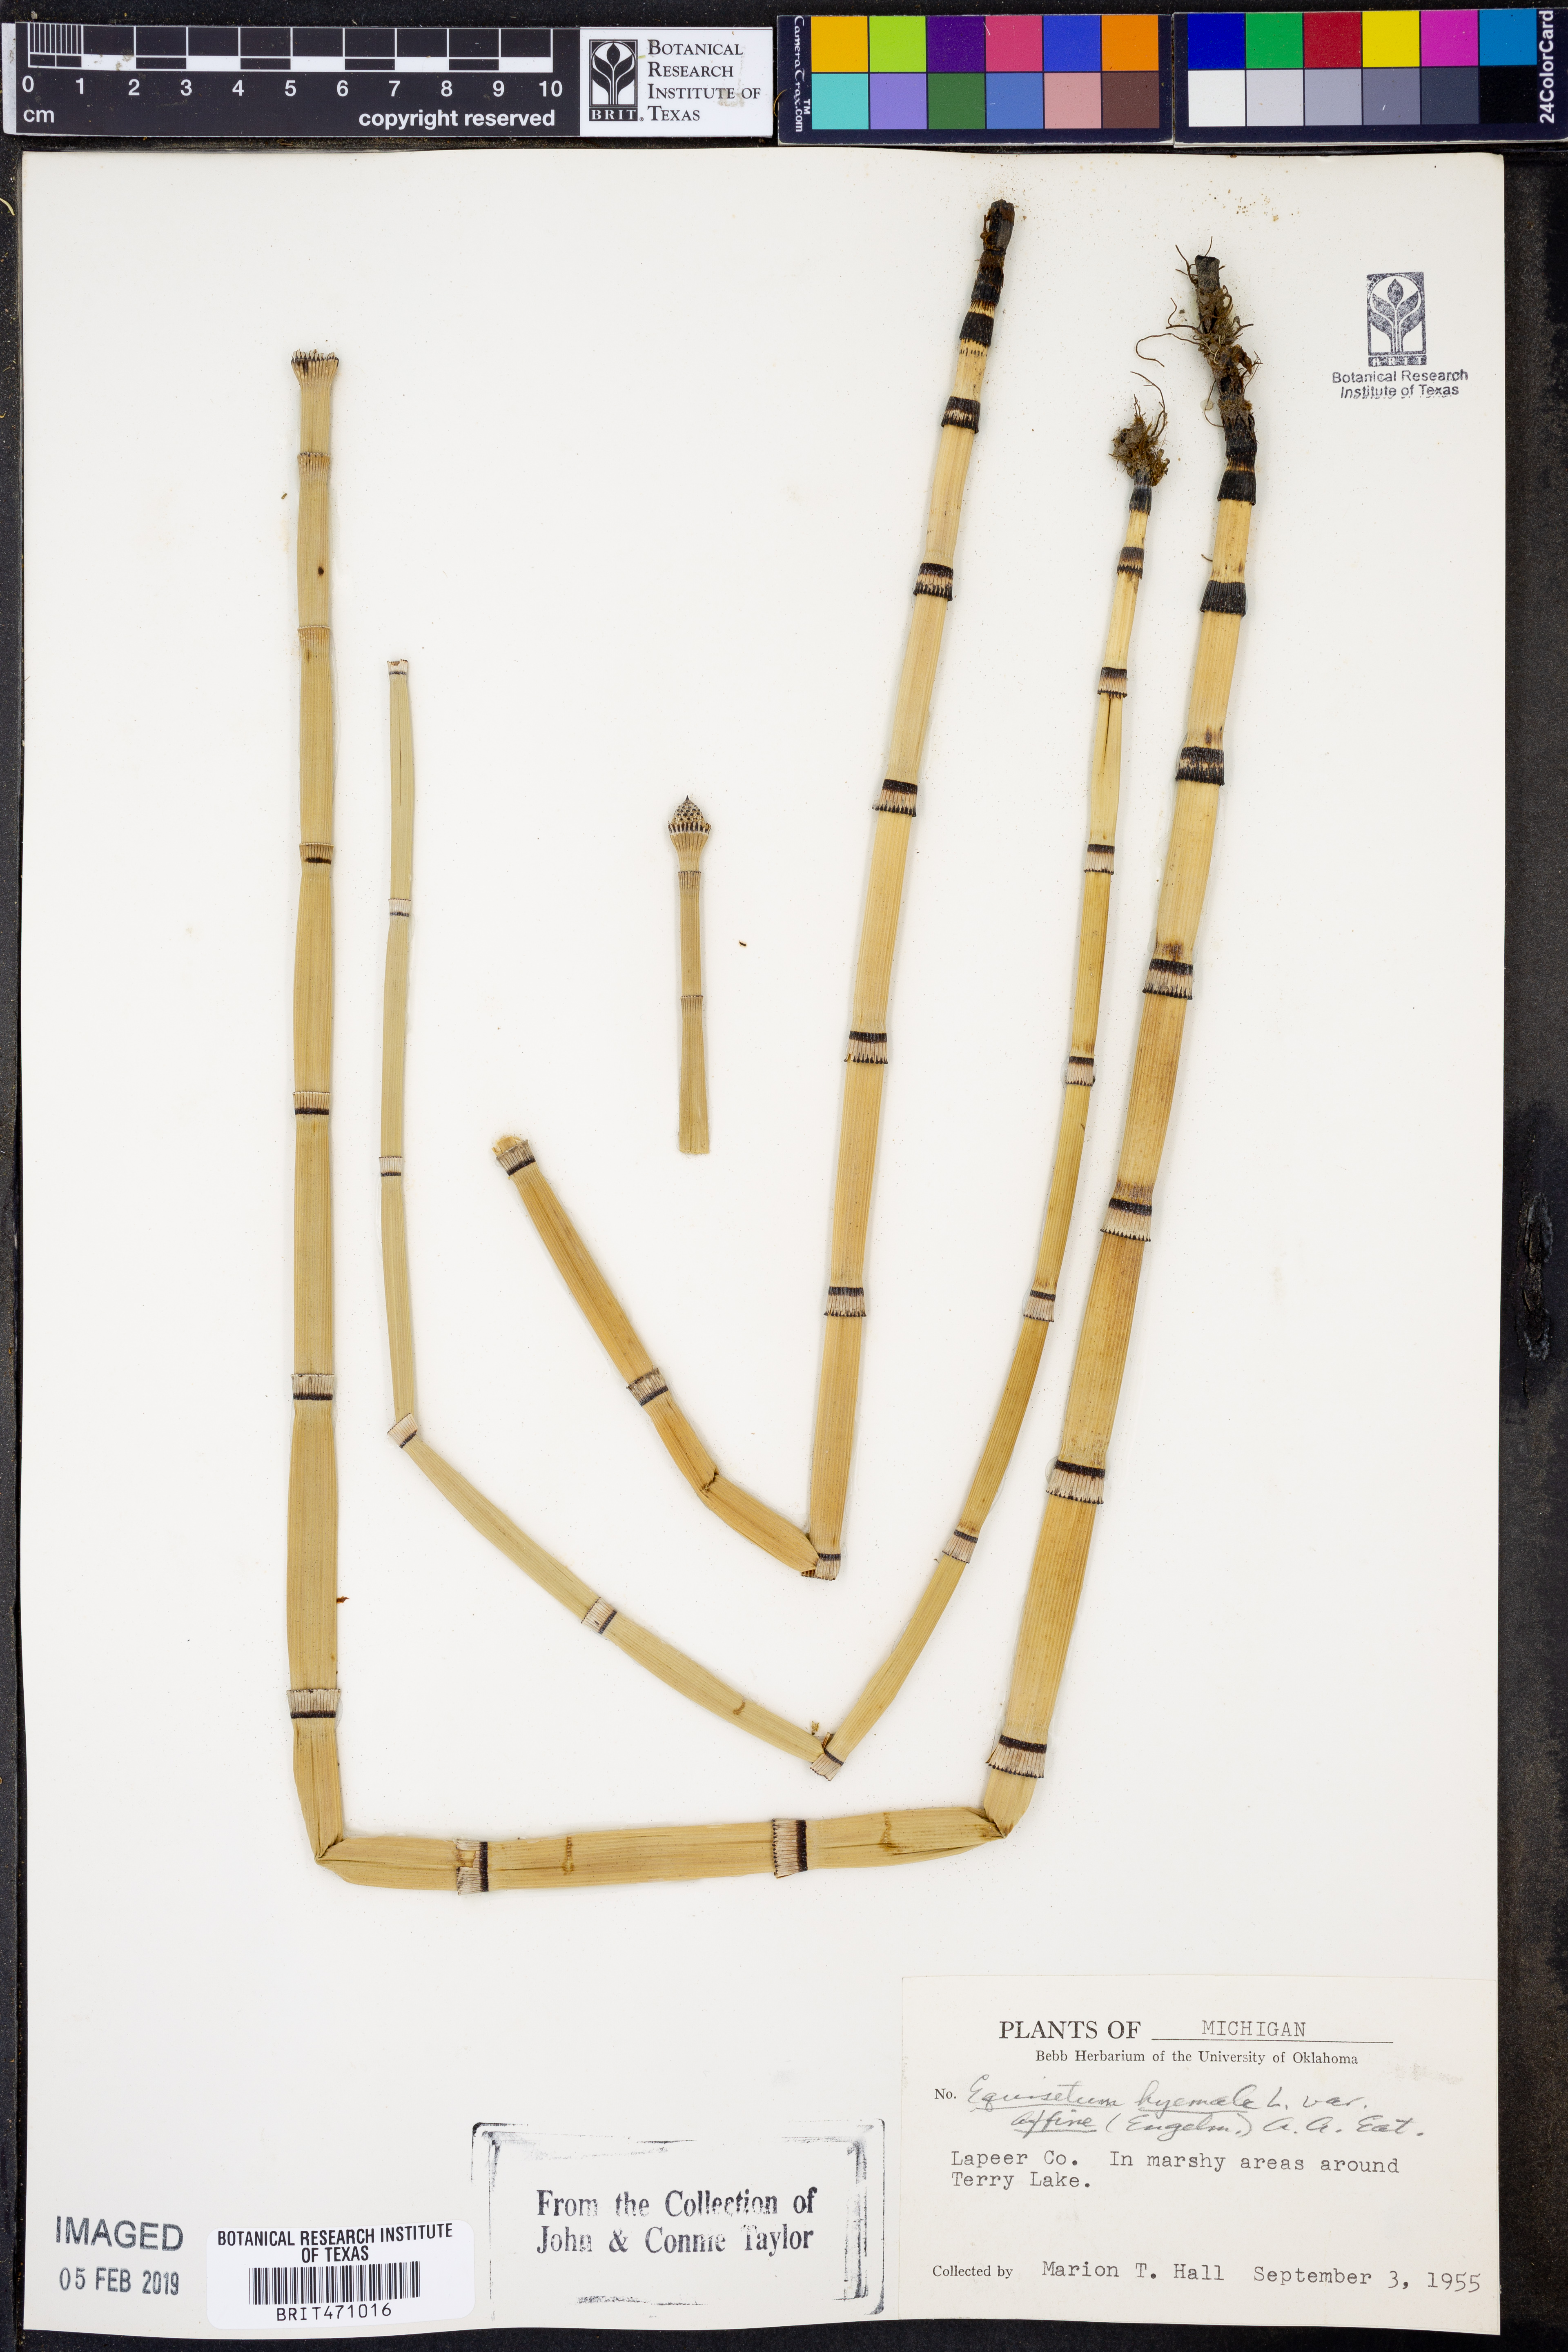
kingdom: Plantae
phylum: Tracheophyta
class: Polypodiopsida
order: Equisetales
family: Equisetaceae
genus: Equisetum
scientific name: Equisetum praealtum
